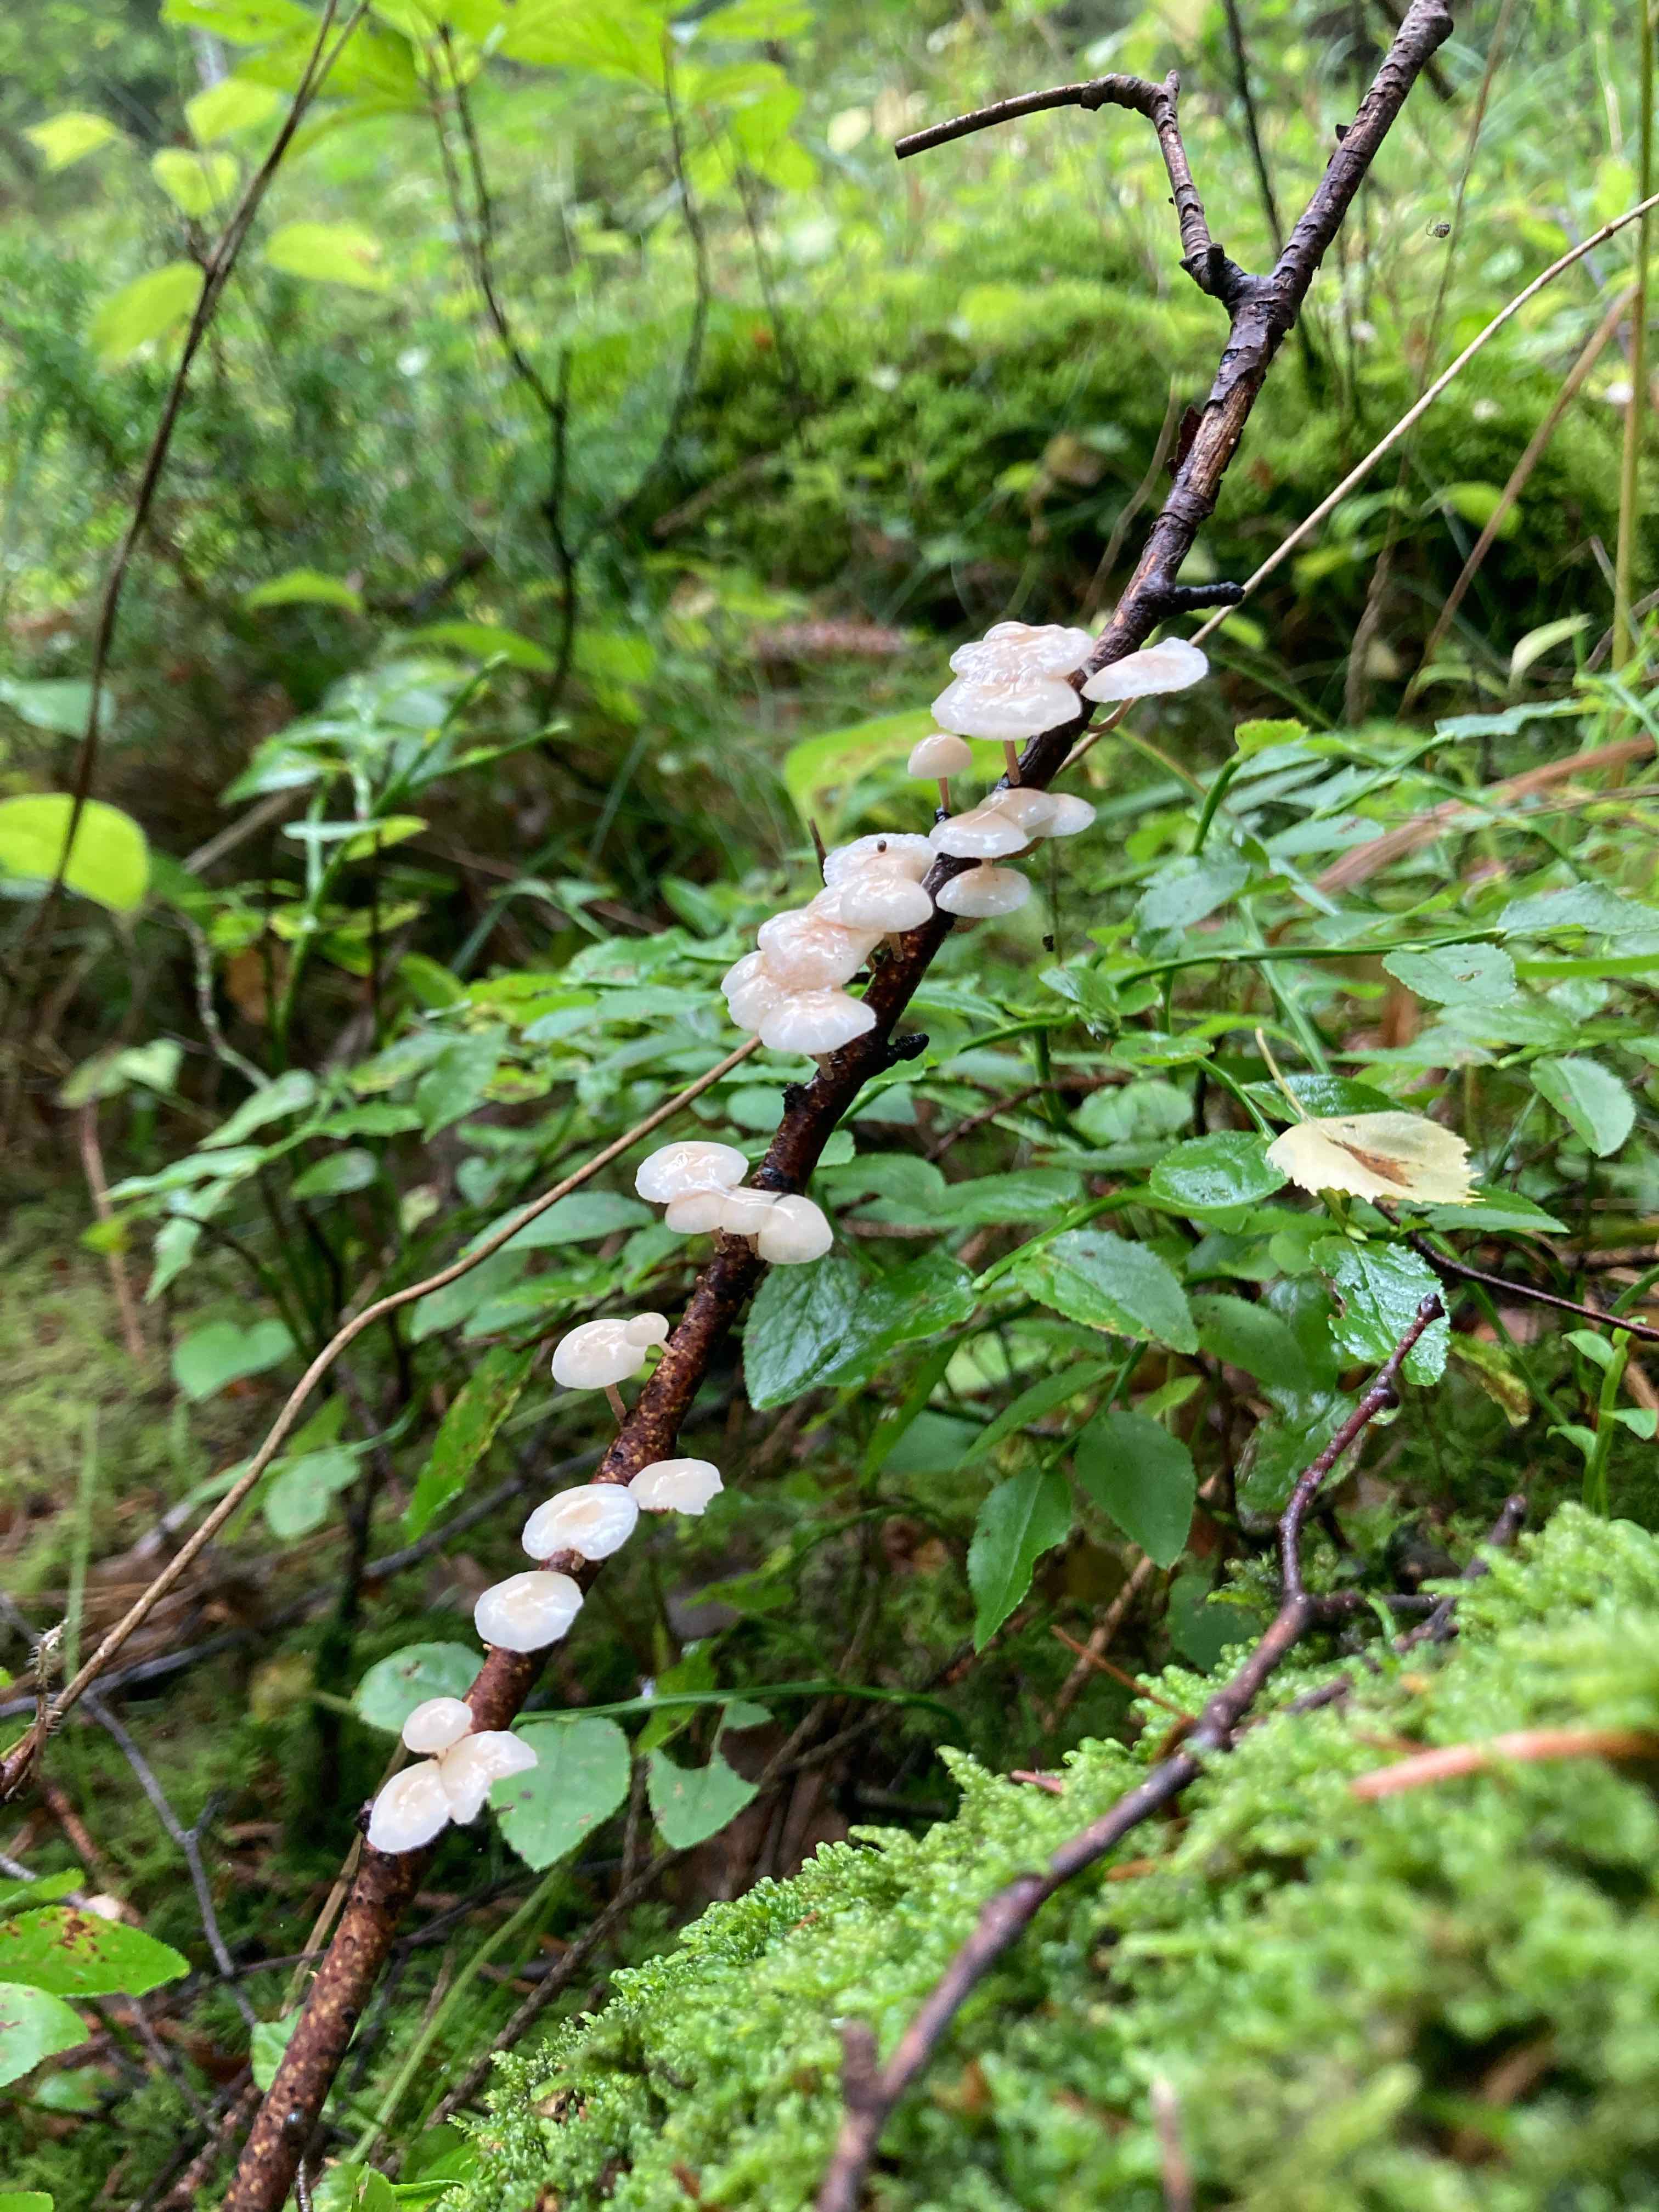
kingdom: Fungi
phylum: Basidiomycota
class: Agaricomycetes
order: Agaricales
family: Omphalotaceae
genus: Collybiopsis
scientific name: Collybiopsis ramealis
